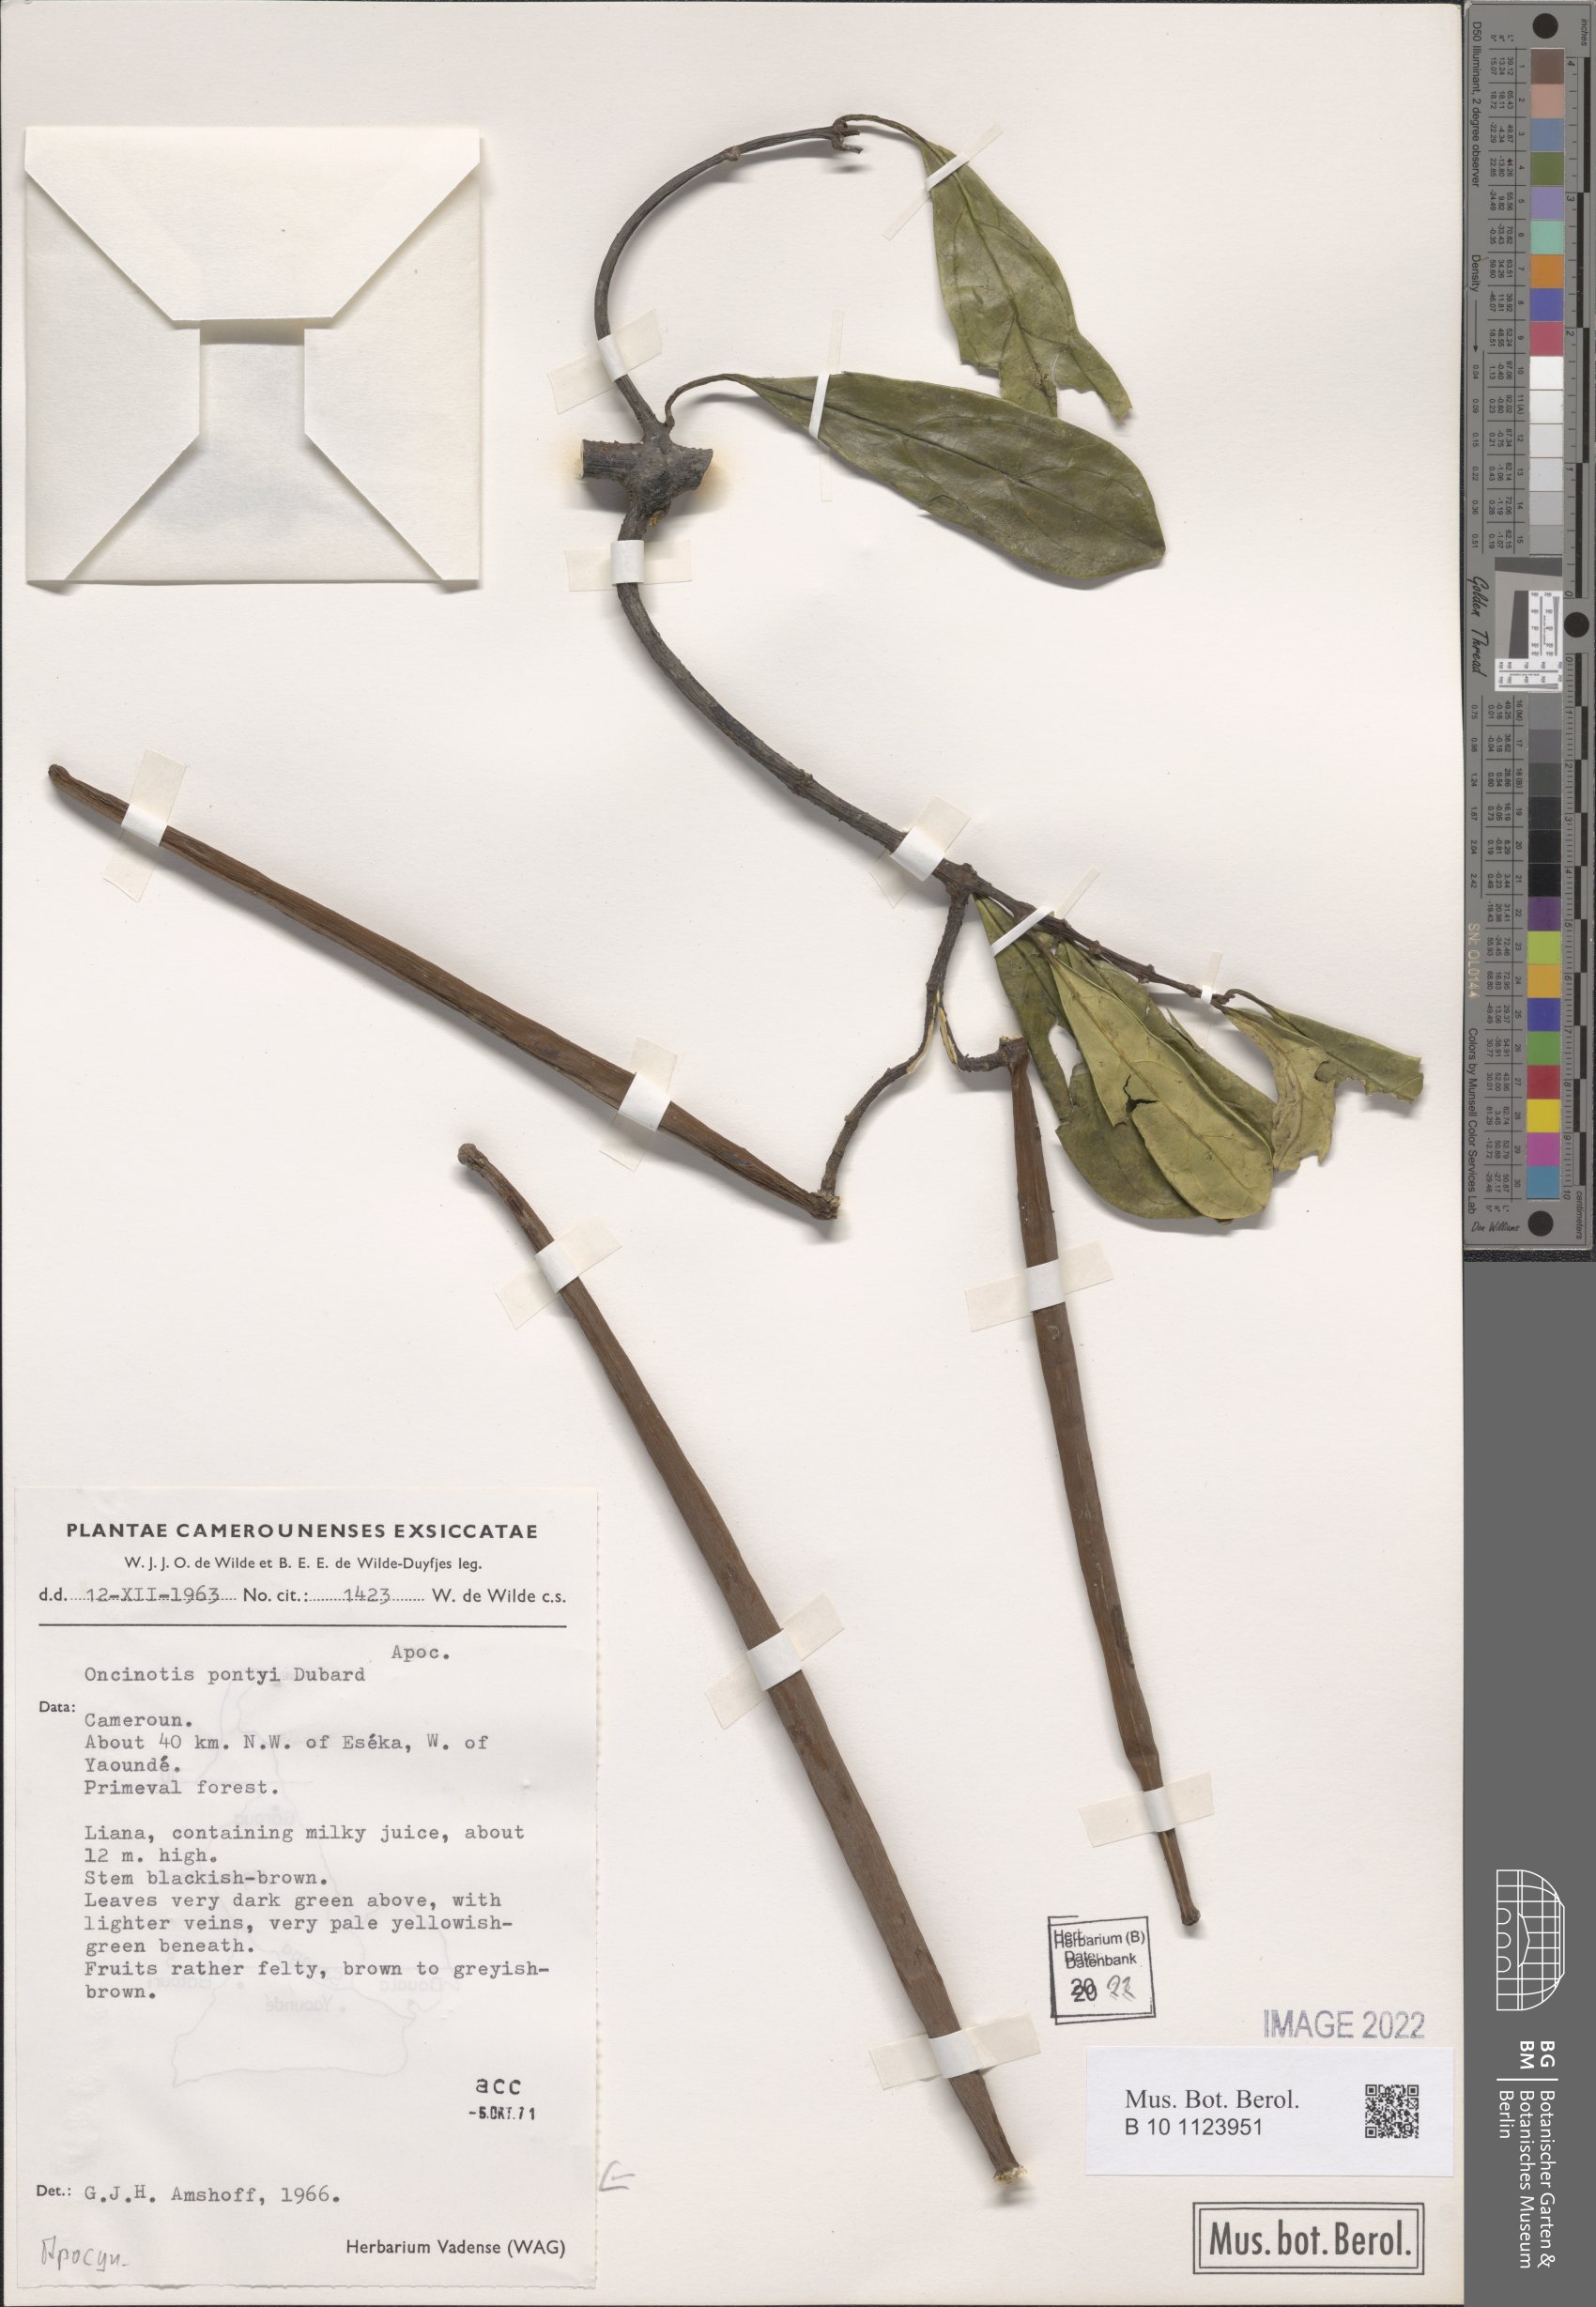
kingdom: Plantae
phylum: Tracheophyta
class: Magnoliopsida
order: Gentianales
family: Apocynaceae
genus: Oncinotis
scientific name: Oncinotis pontyi
